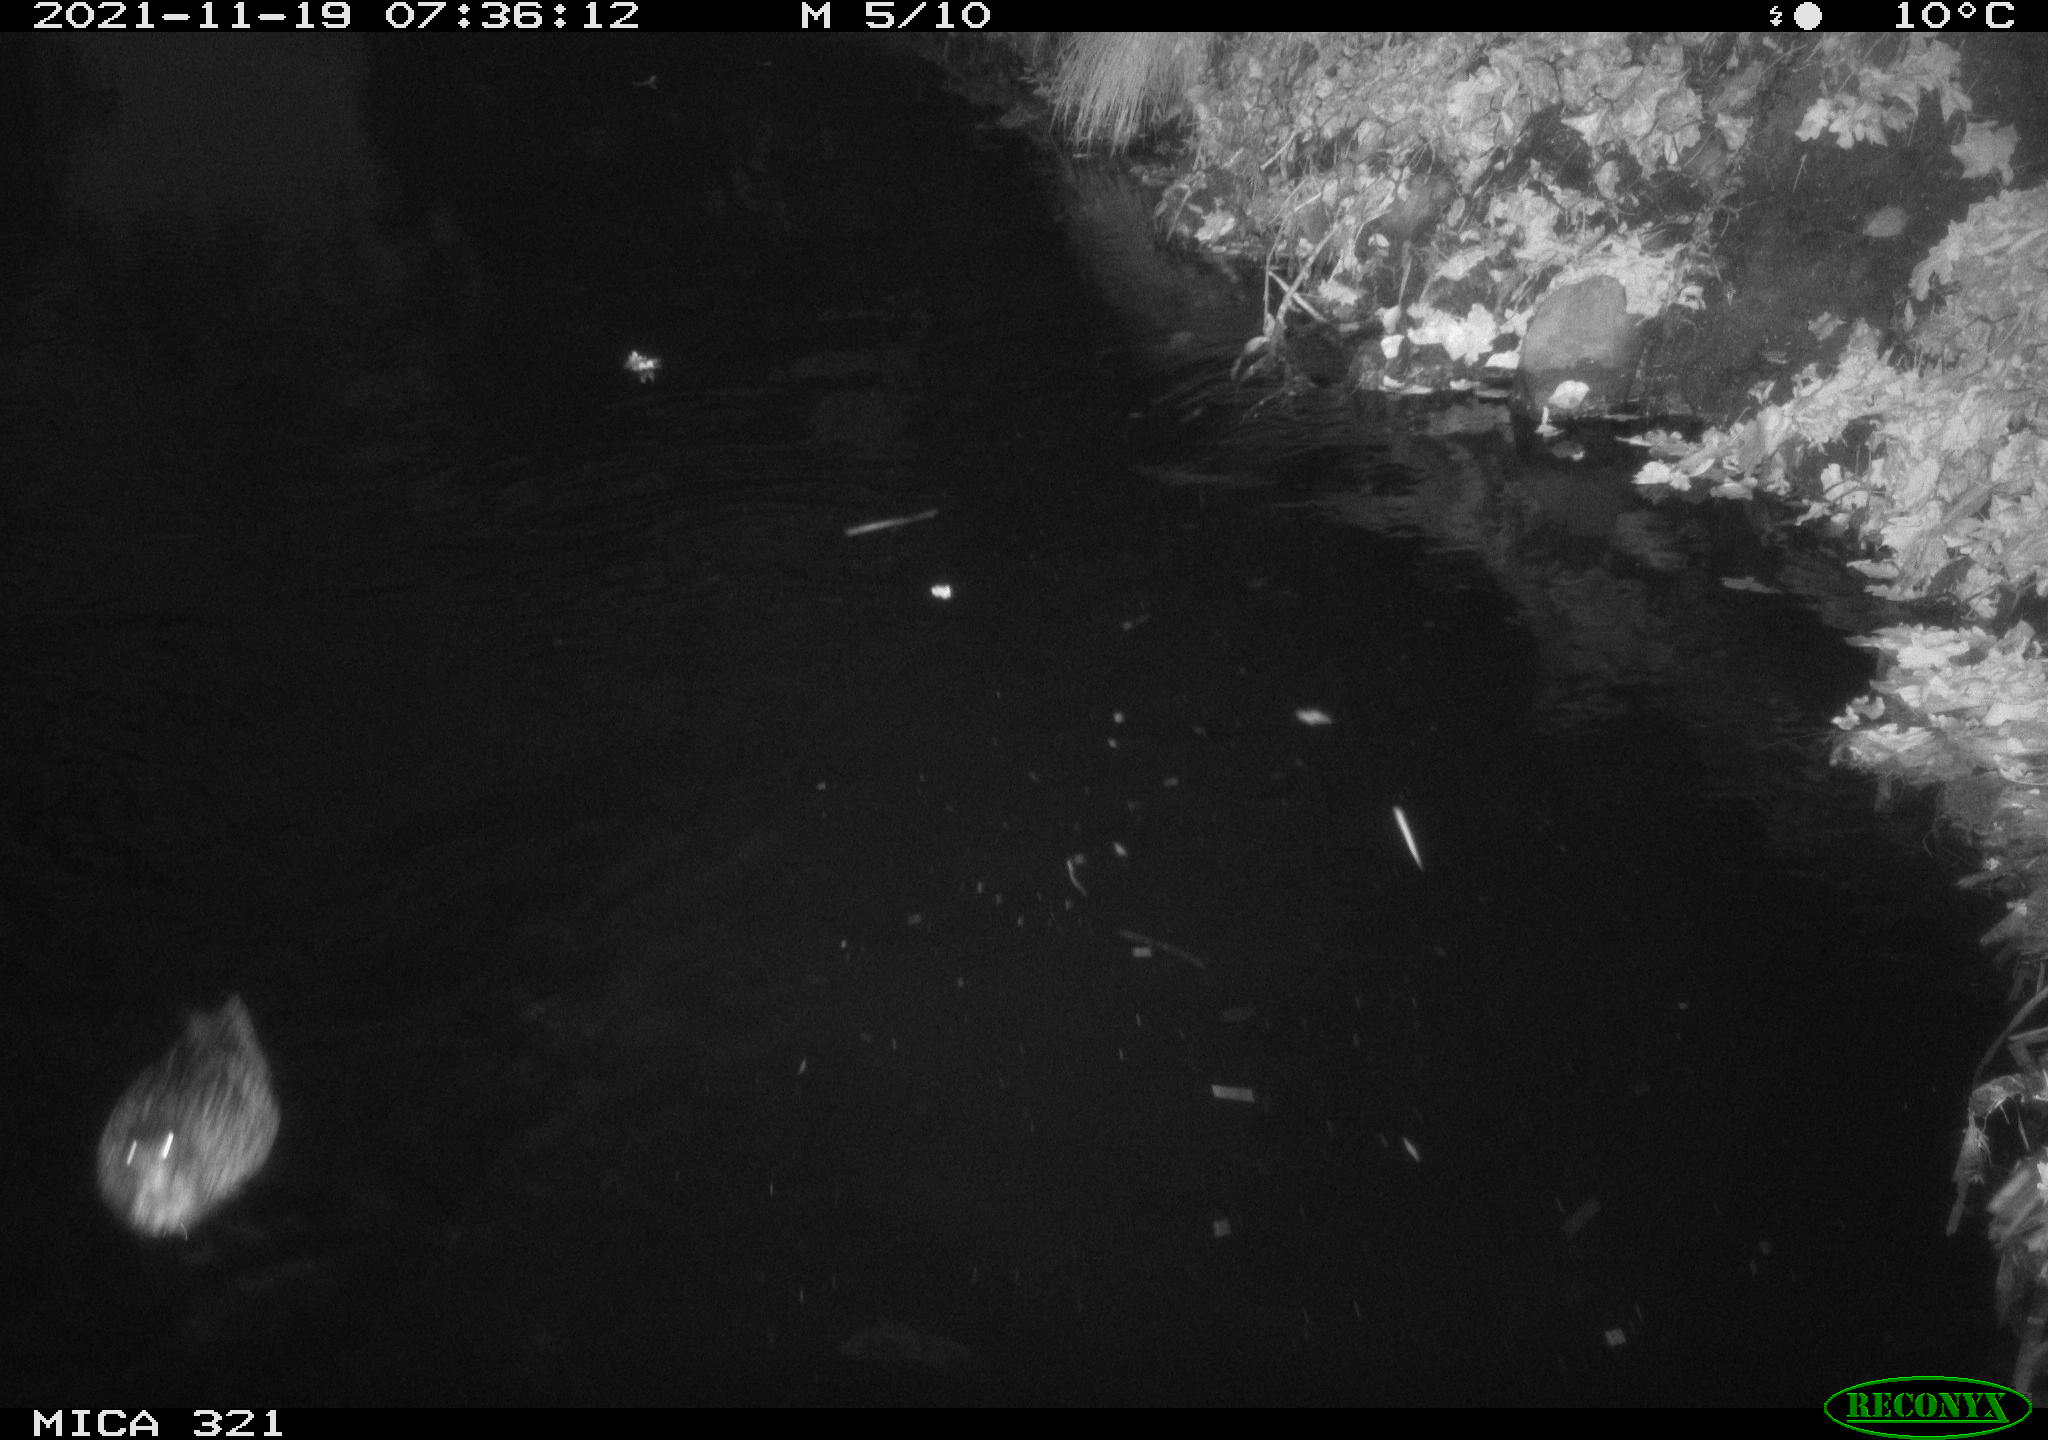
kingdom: Animalia
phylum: Chordata
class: Mammalia
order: Rodentia
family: Muridae
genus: Rattus
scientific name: Rattus norvegicus
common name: Brown rat
